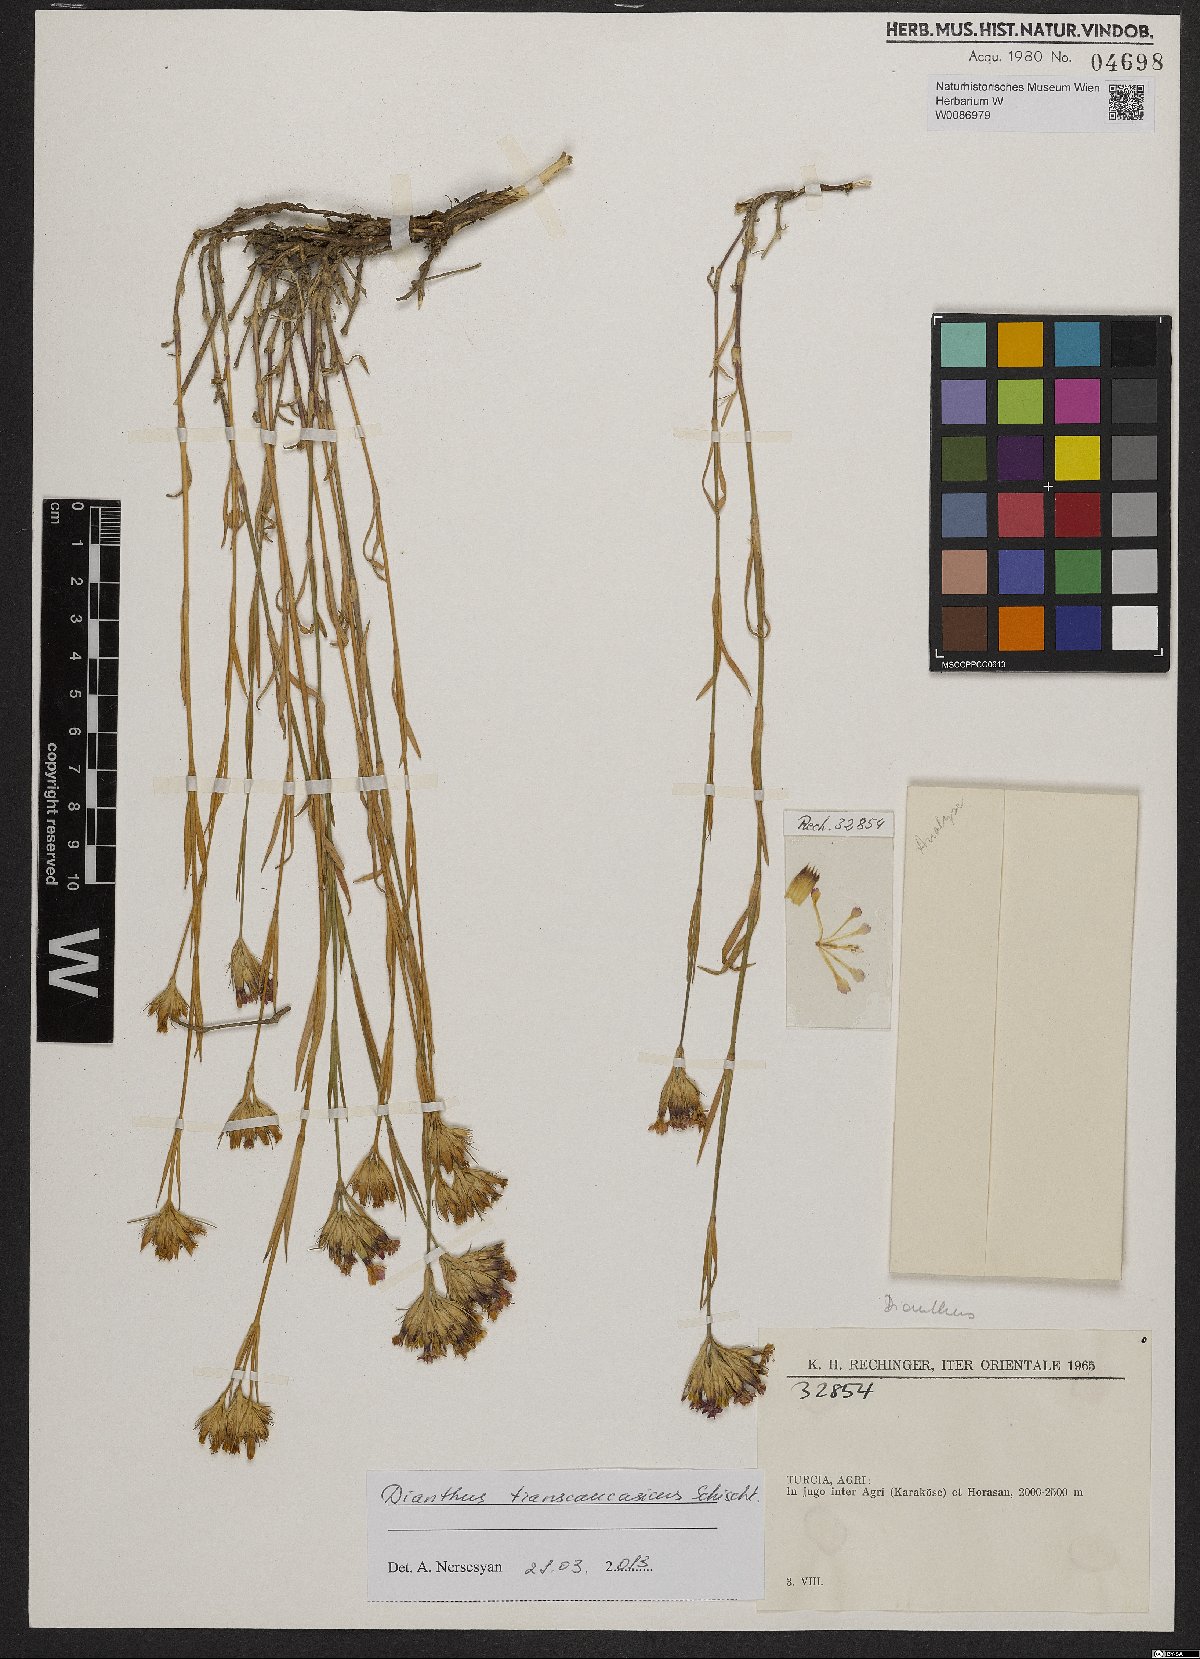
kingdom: Plantae
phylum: Tracheophyta
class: Magnoliopsida
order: Caryophyllales
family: Caryophyllaceae
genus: Dianthus
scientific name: Dianthus masmenaeus
